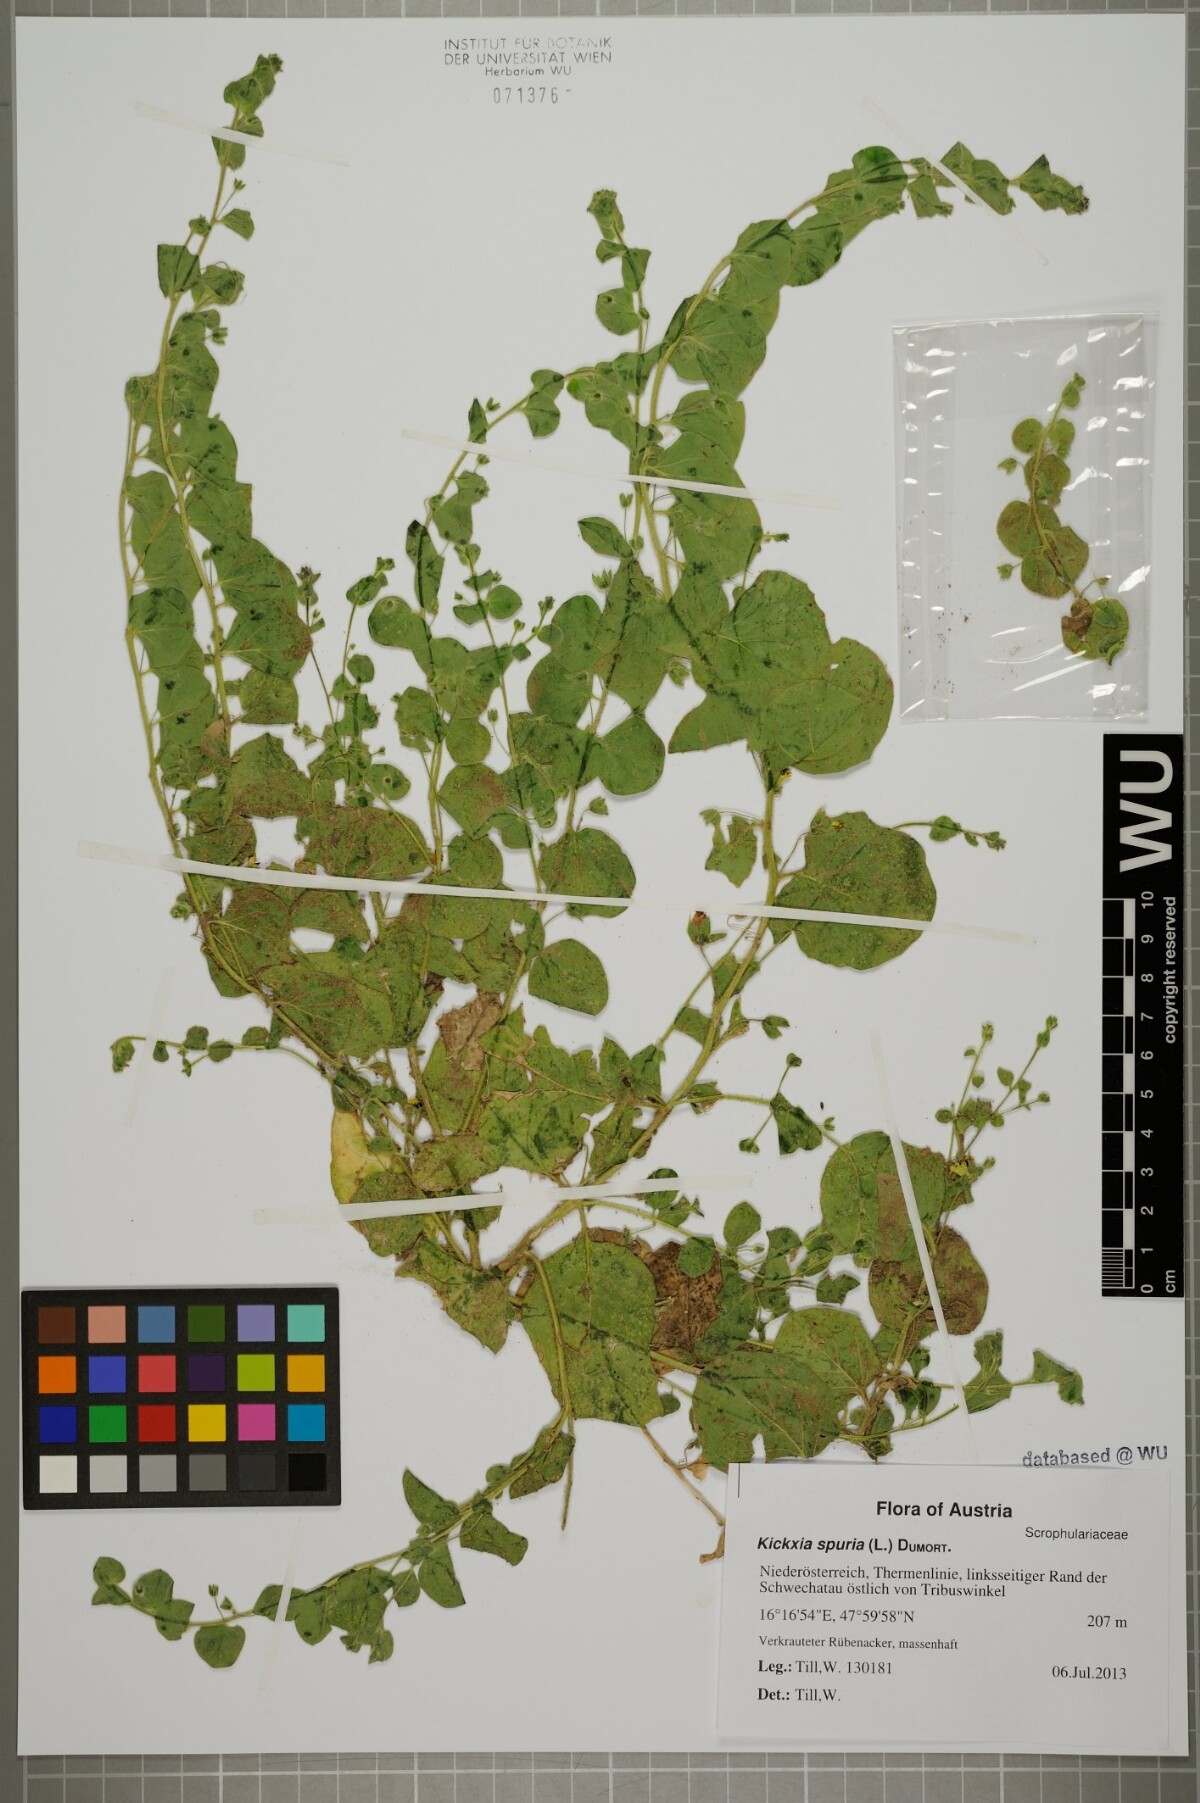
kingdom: Plantae
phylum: Tracheophyta
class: Magnoliopsida
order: Lamiales
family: Plantaginaceae
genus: Kickxia
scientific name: Kickxia spuria
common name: Round-leaved fluellen
